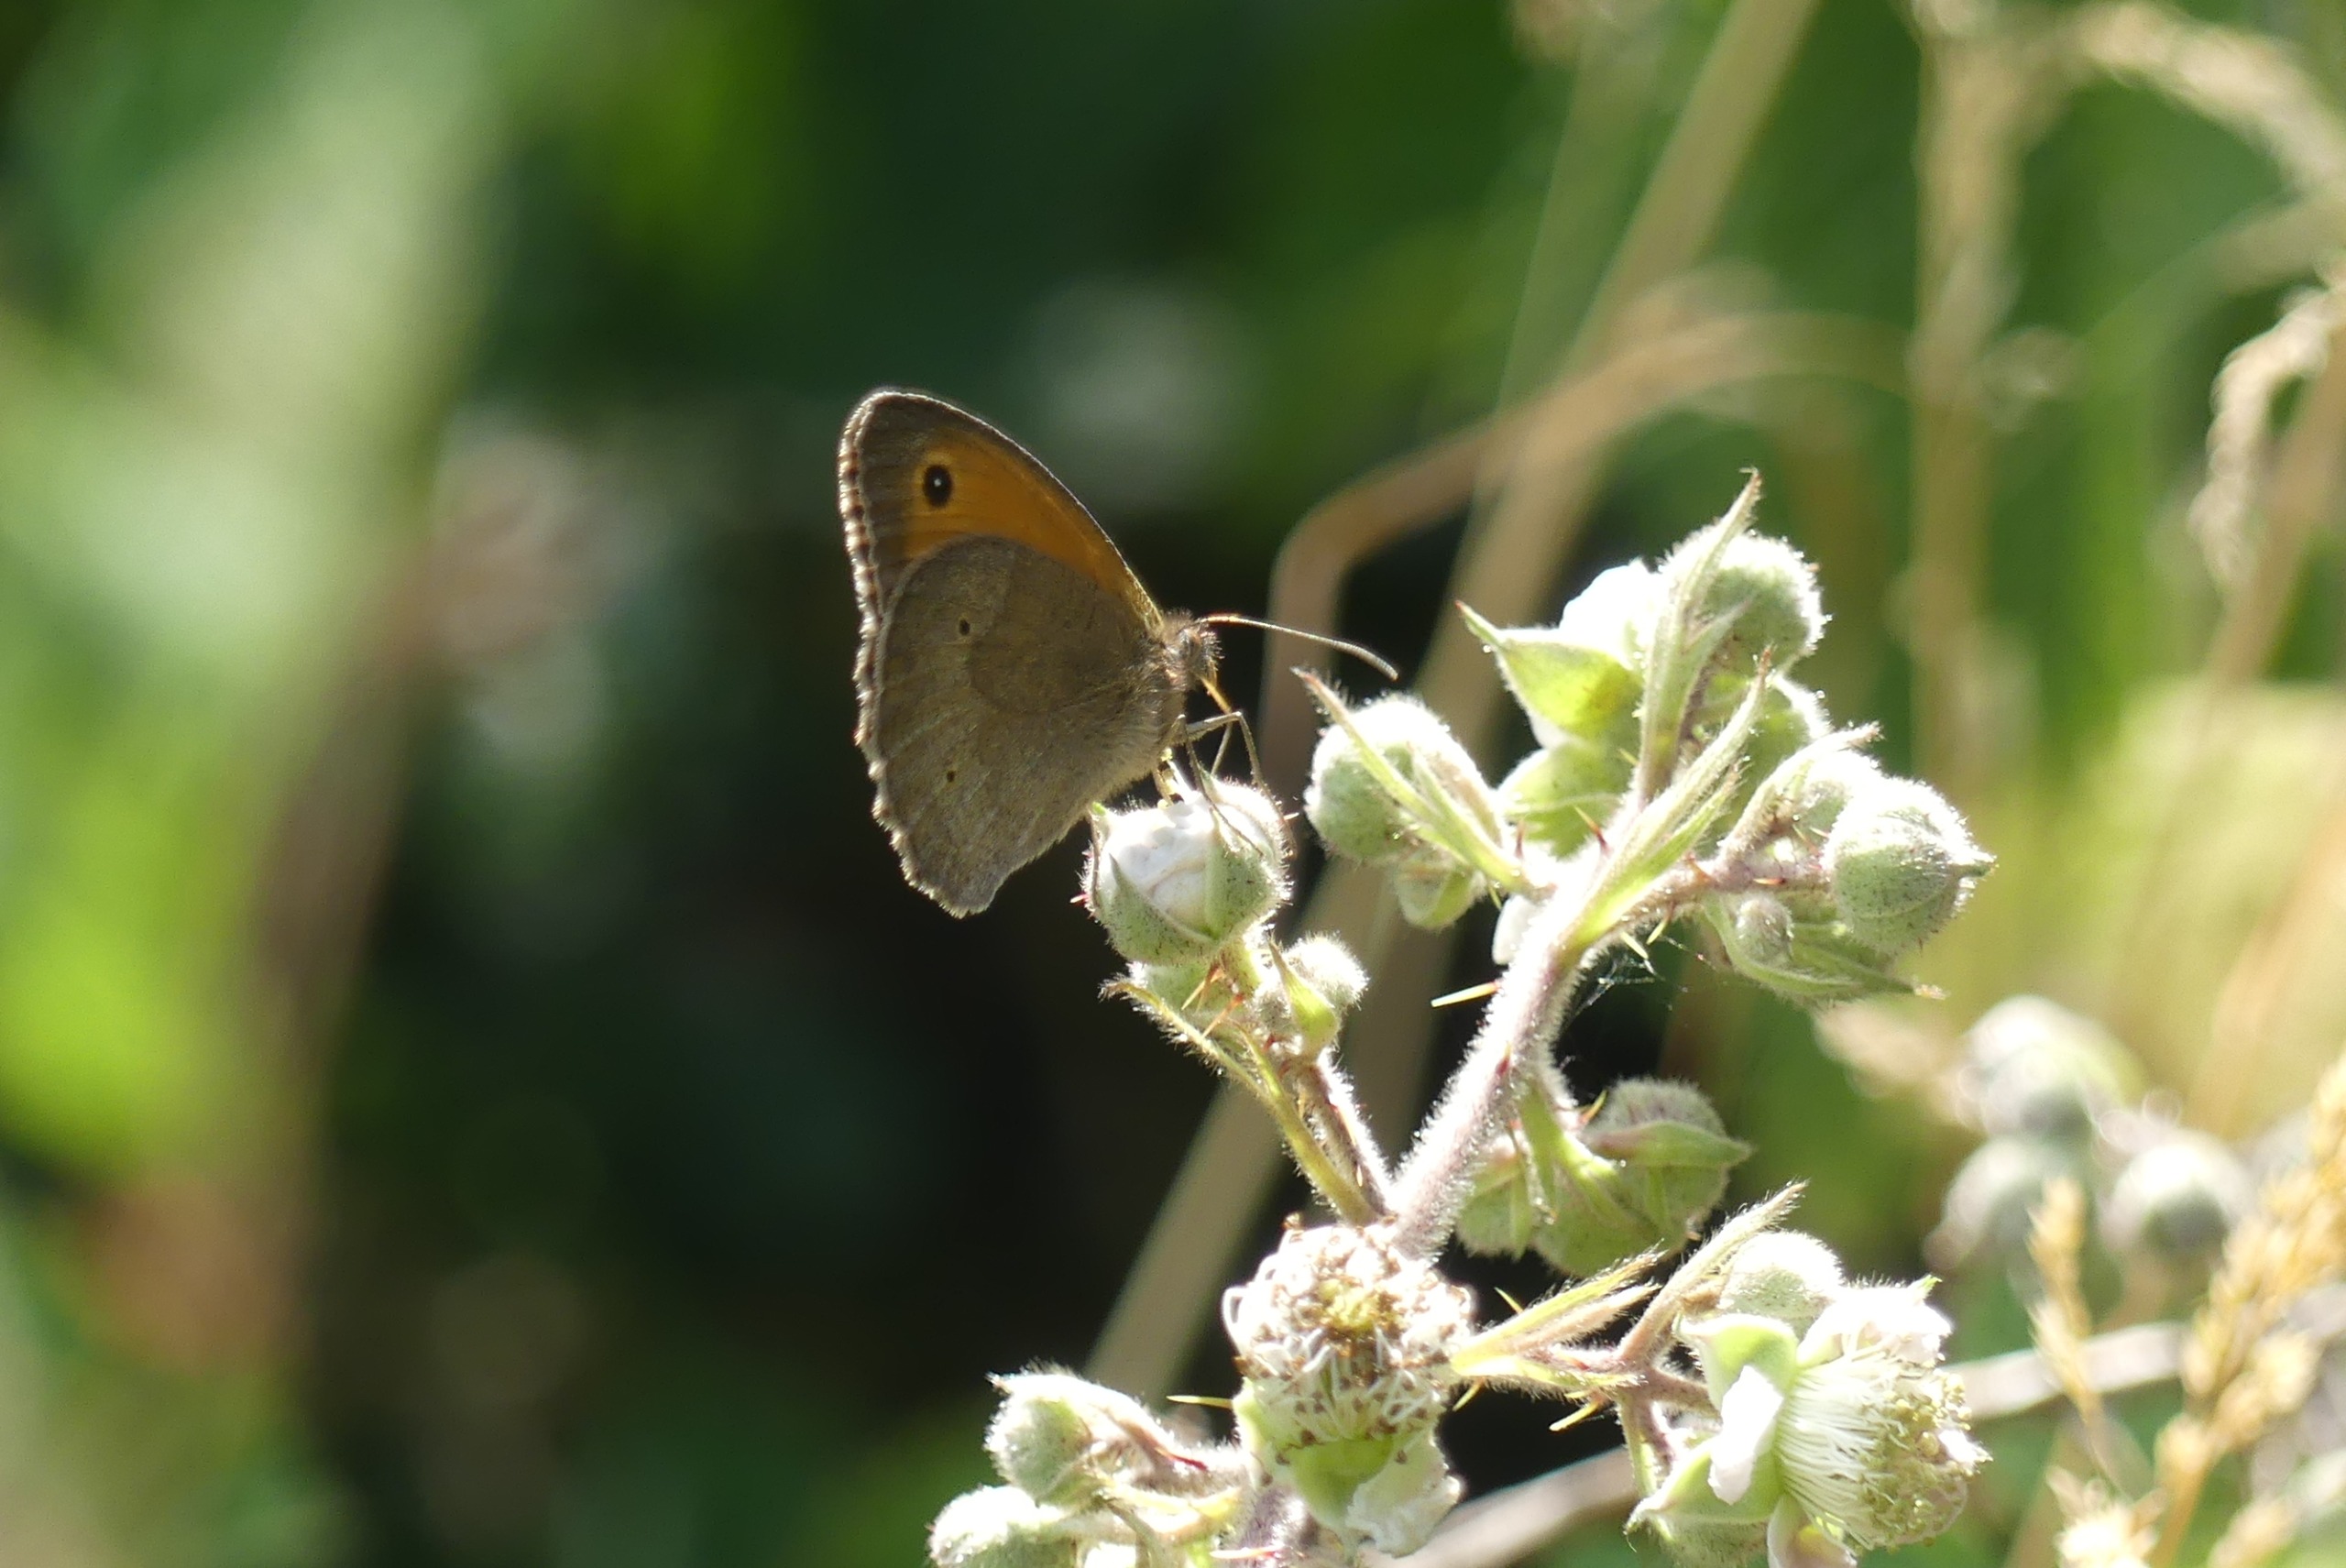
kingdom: Animalia
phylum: Arthropoda
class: Insecta
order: Lepidoptera
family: Nymphalidae
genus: Maniola
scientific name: Maniola jurtina
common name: Græsrandøje
